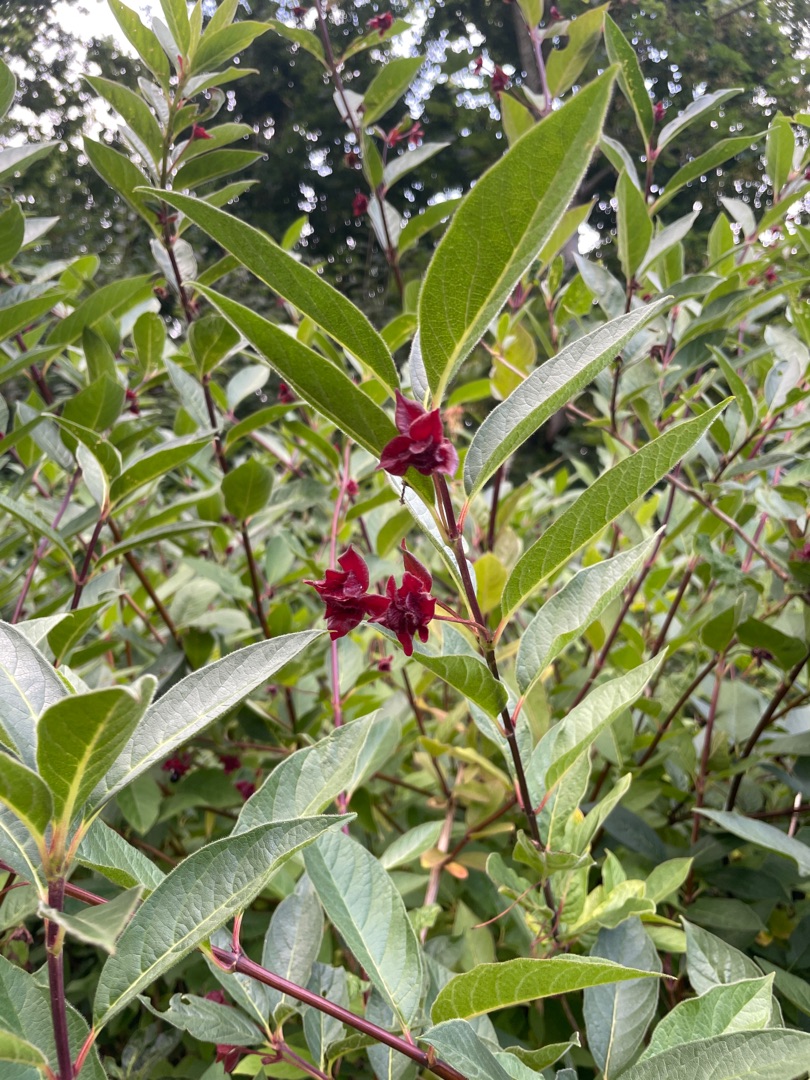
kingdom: Plantae
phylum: Tracheophyta
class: Magnoliopsida
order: Dipsacales
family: Caprifoliaceae
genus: Lonicera
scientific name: Lonicera involucrata
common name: Svøb-gedeblad (varietet)
